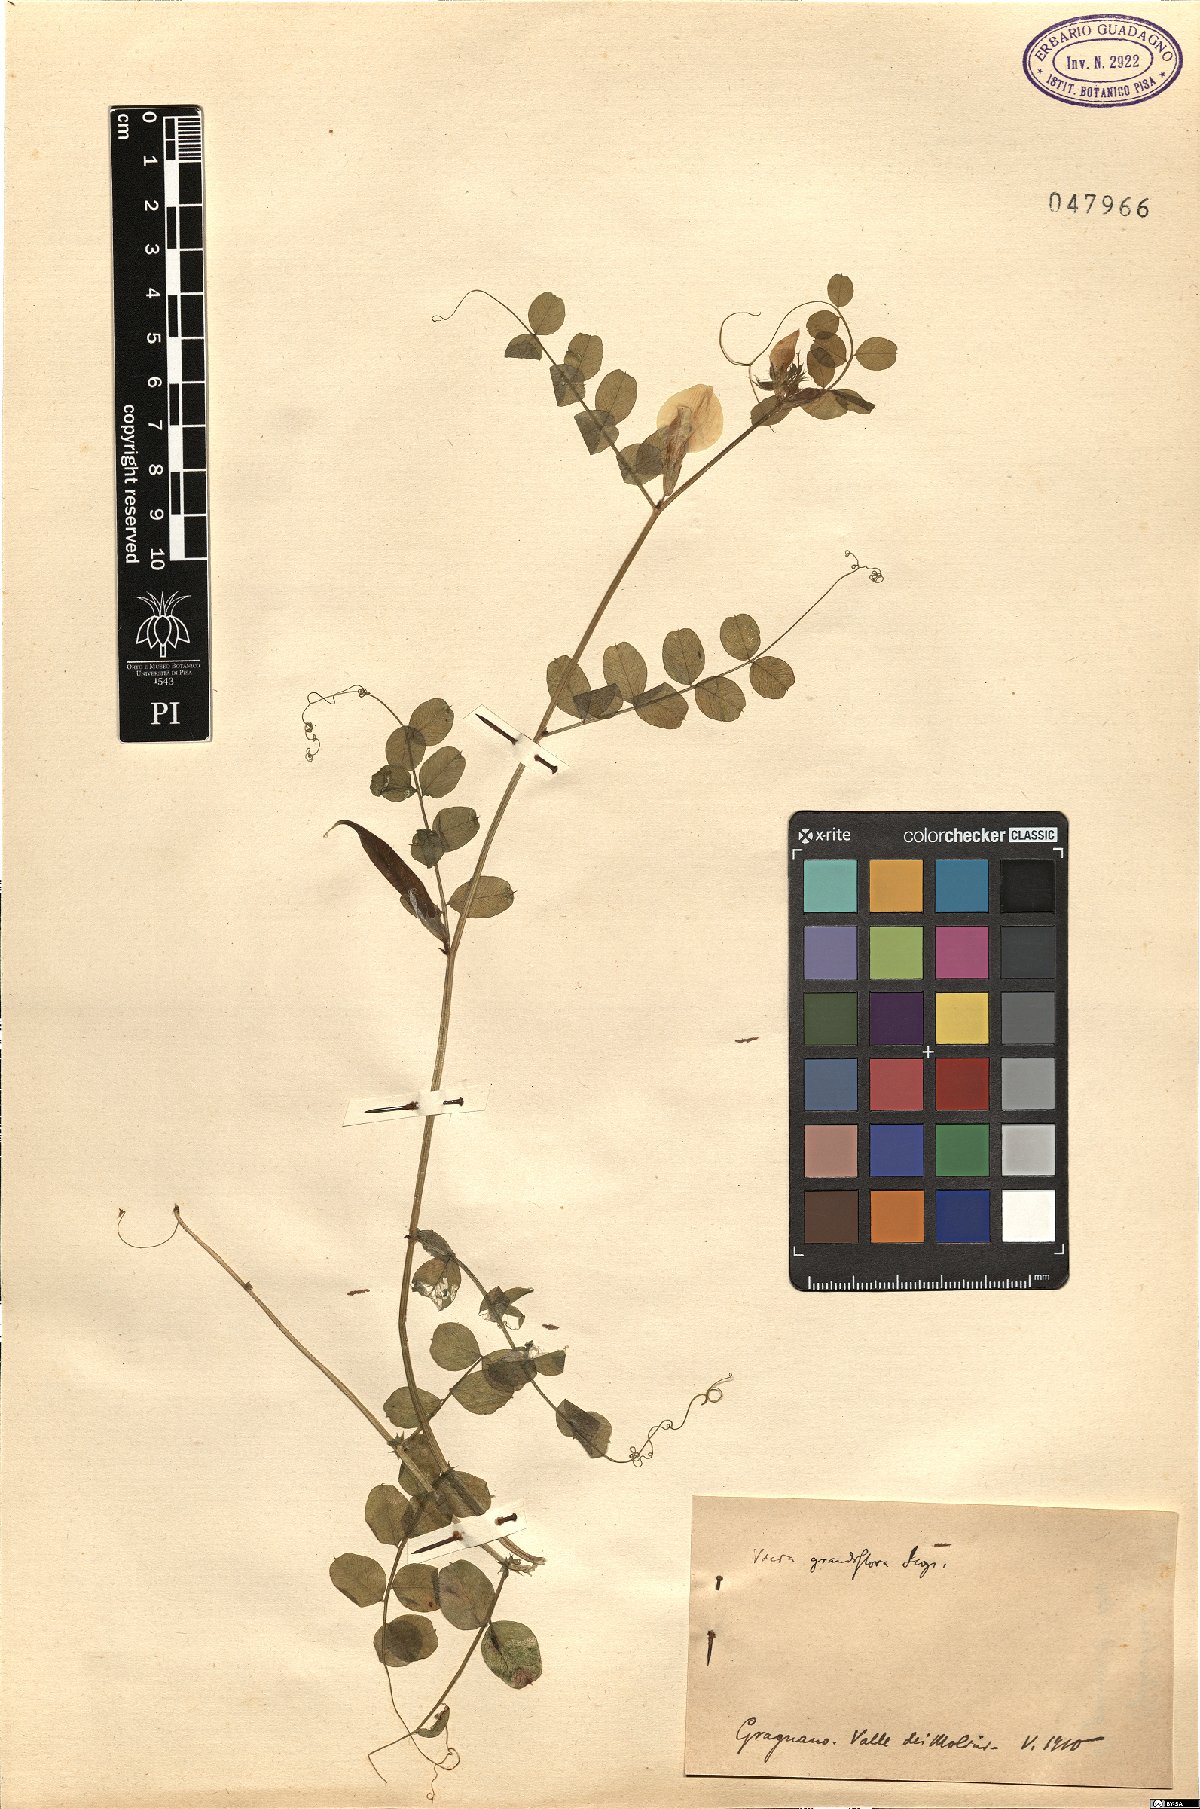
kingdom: Plantae
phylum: Tracheophyta
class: Magnoliopsida
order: Fabales
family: Fabaceae
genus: Vicia
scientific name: Vicia grandiflora
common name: Large yellow vetch
